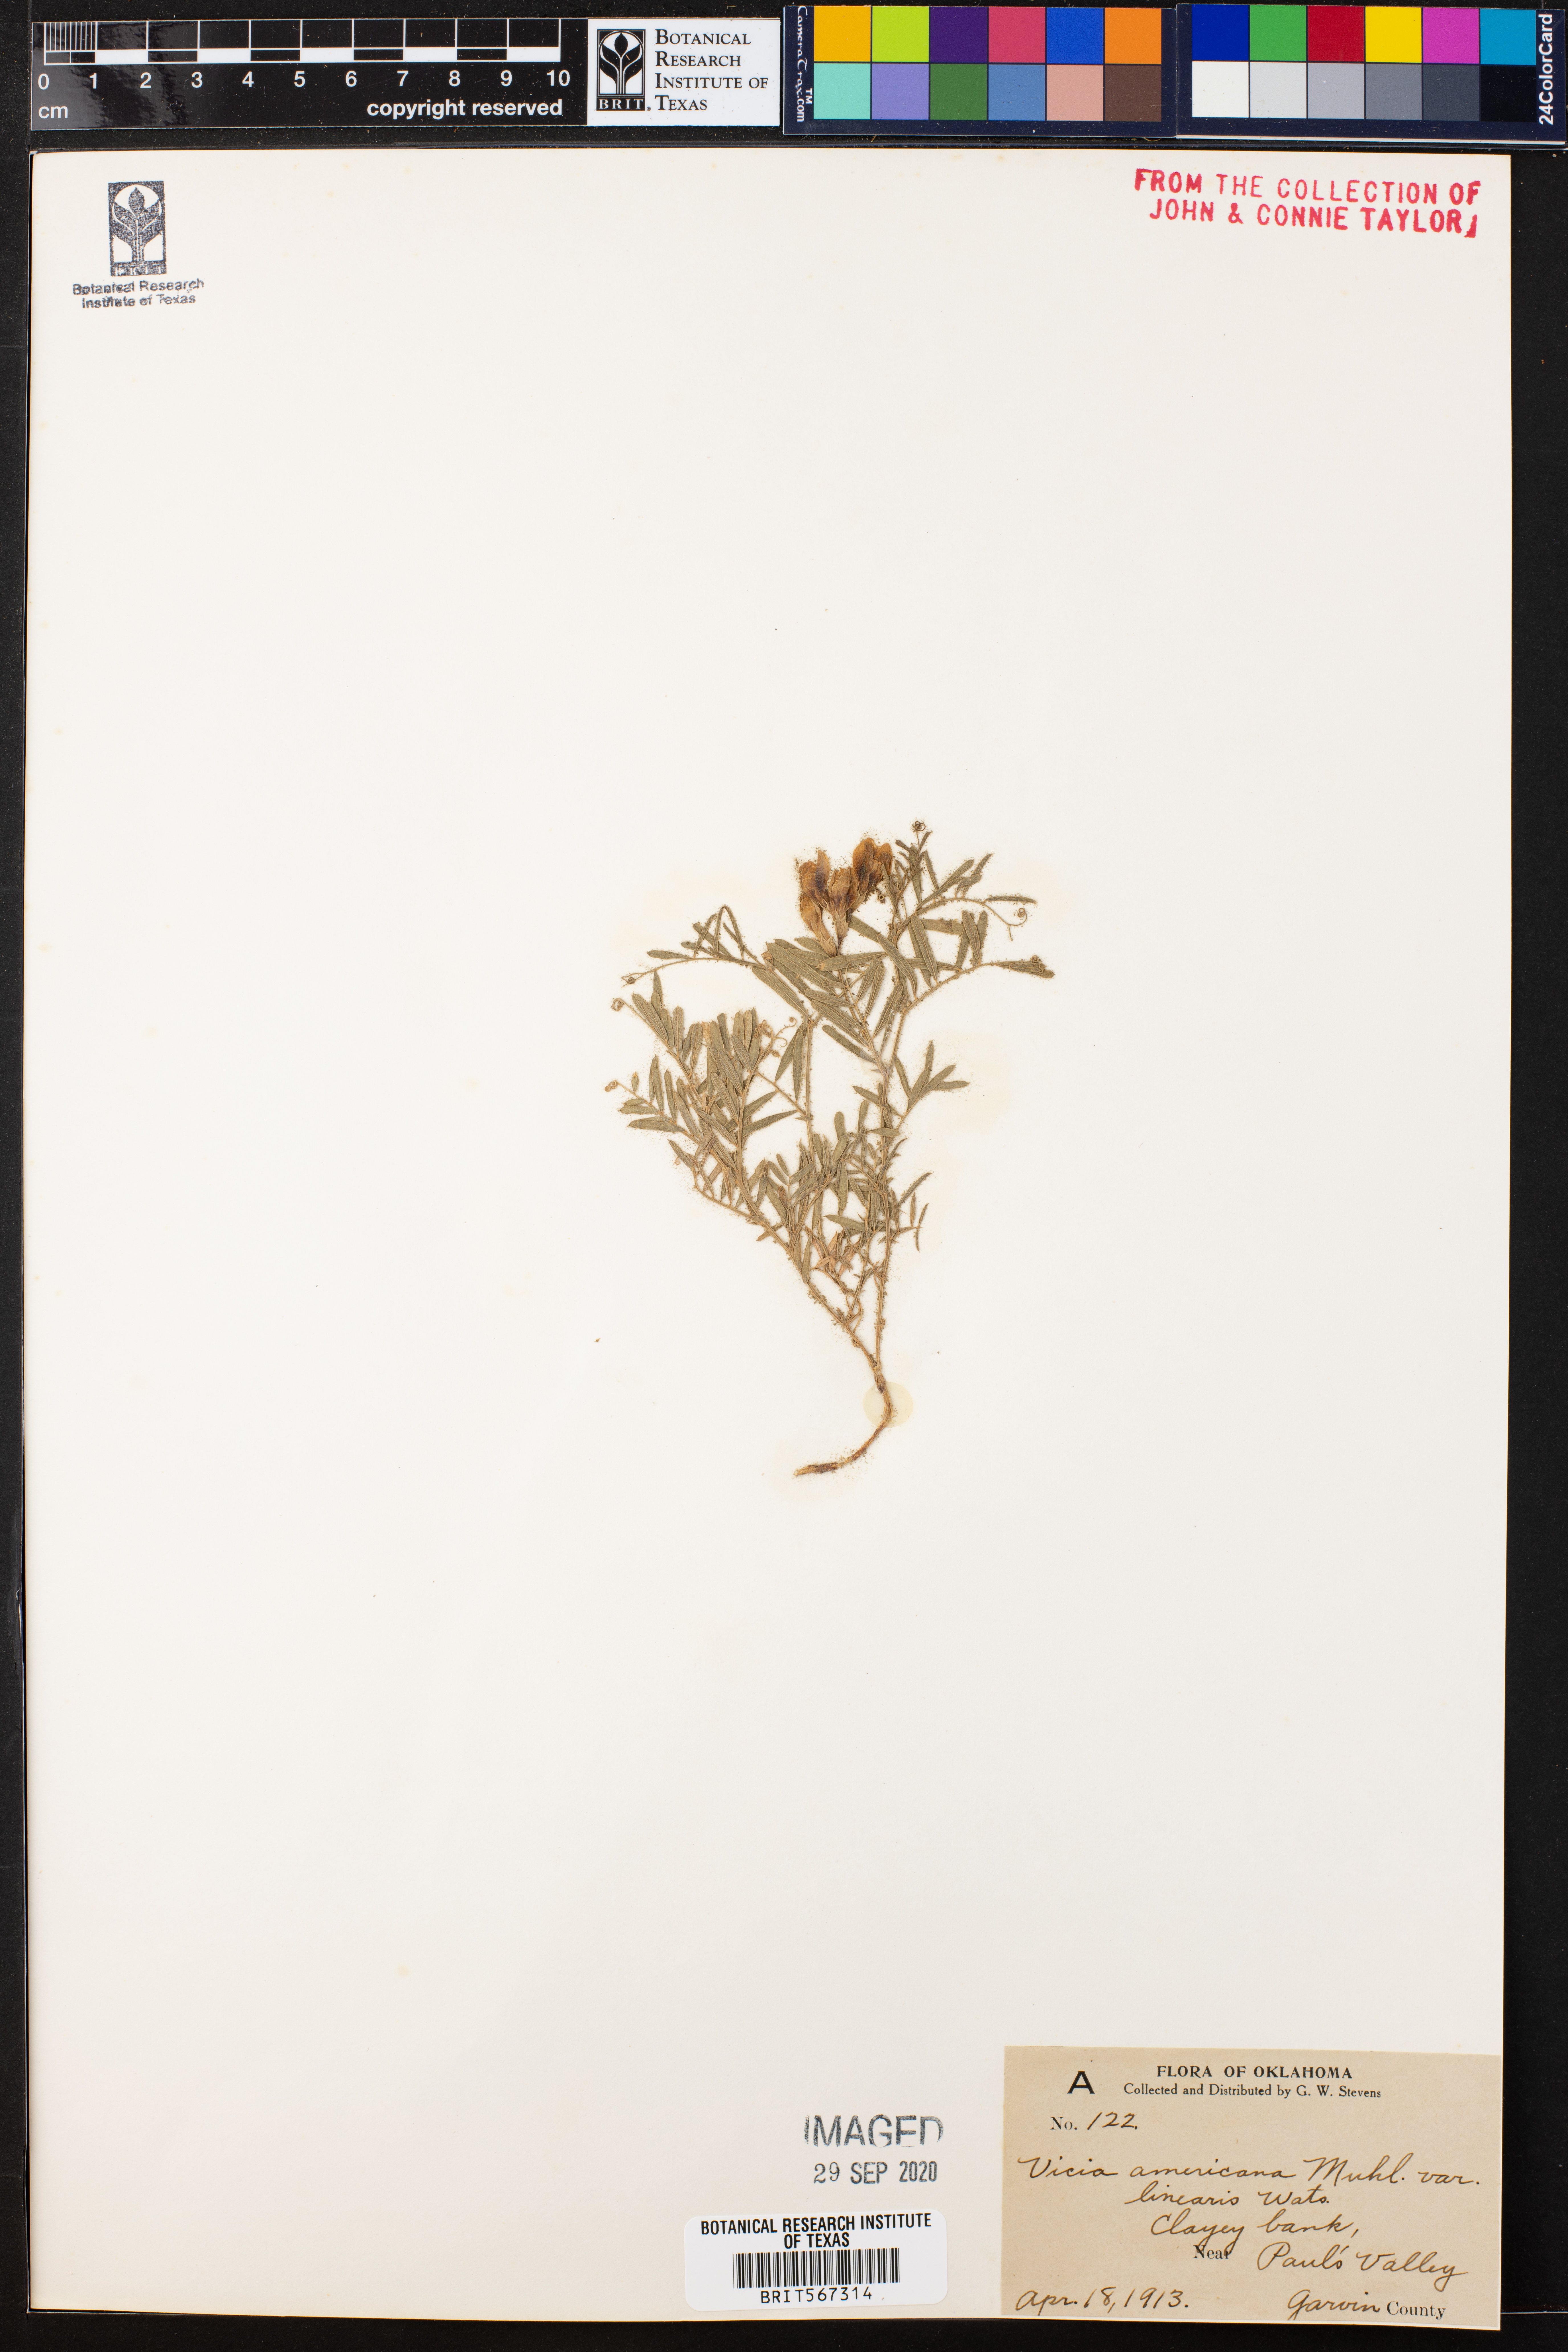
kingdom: Plantae
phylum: Tracheophyta
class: Magnoliopsida
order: Fabales
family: Fabaceae
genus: Vicia
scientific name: Vicia americana
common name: American vetch
